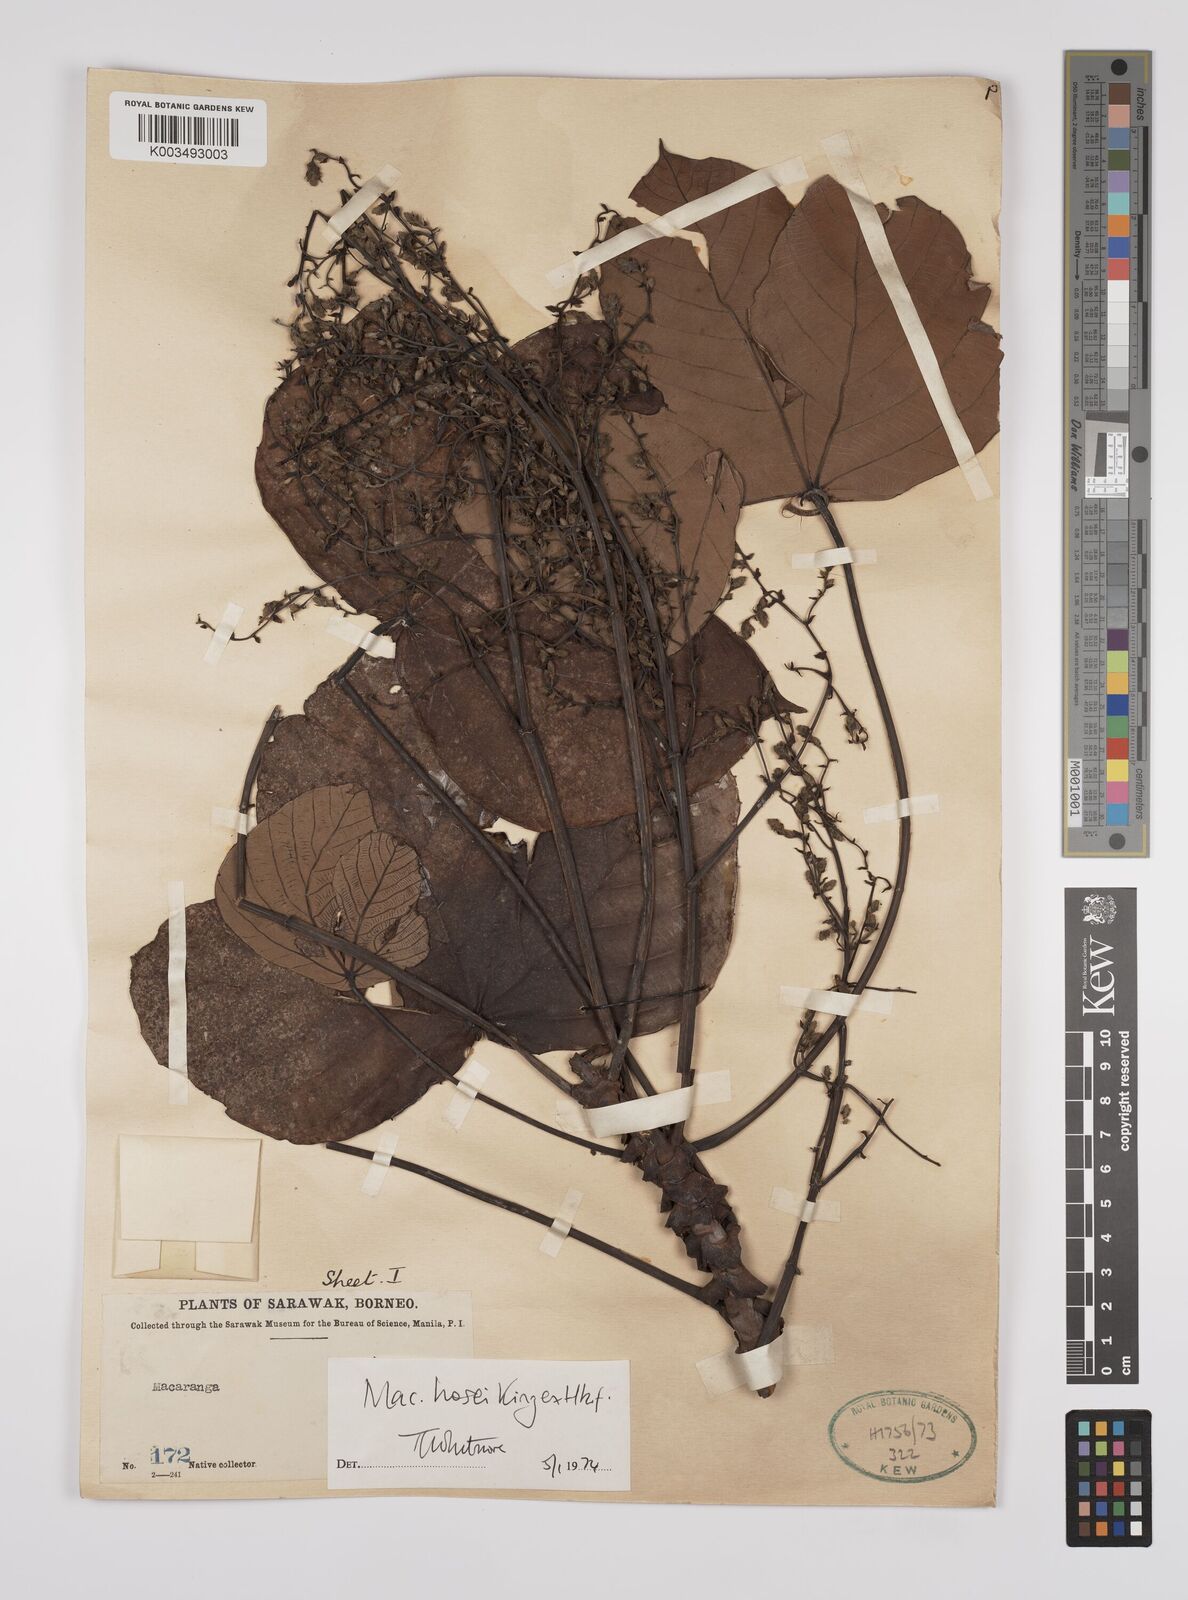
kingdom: Plantae
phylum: Tracheophyta
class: Magnoliopsida
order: Malpighiales
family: Euphorbiaceae
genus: Macaranga
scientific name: Macaranga hosei
